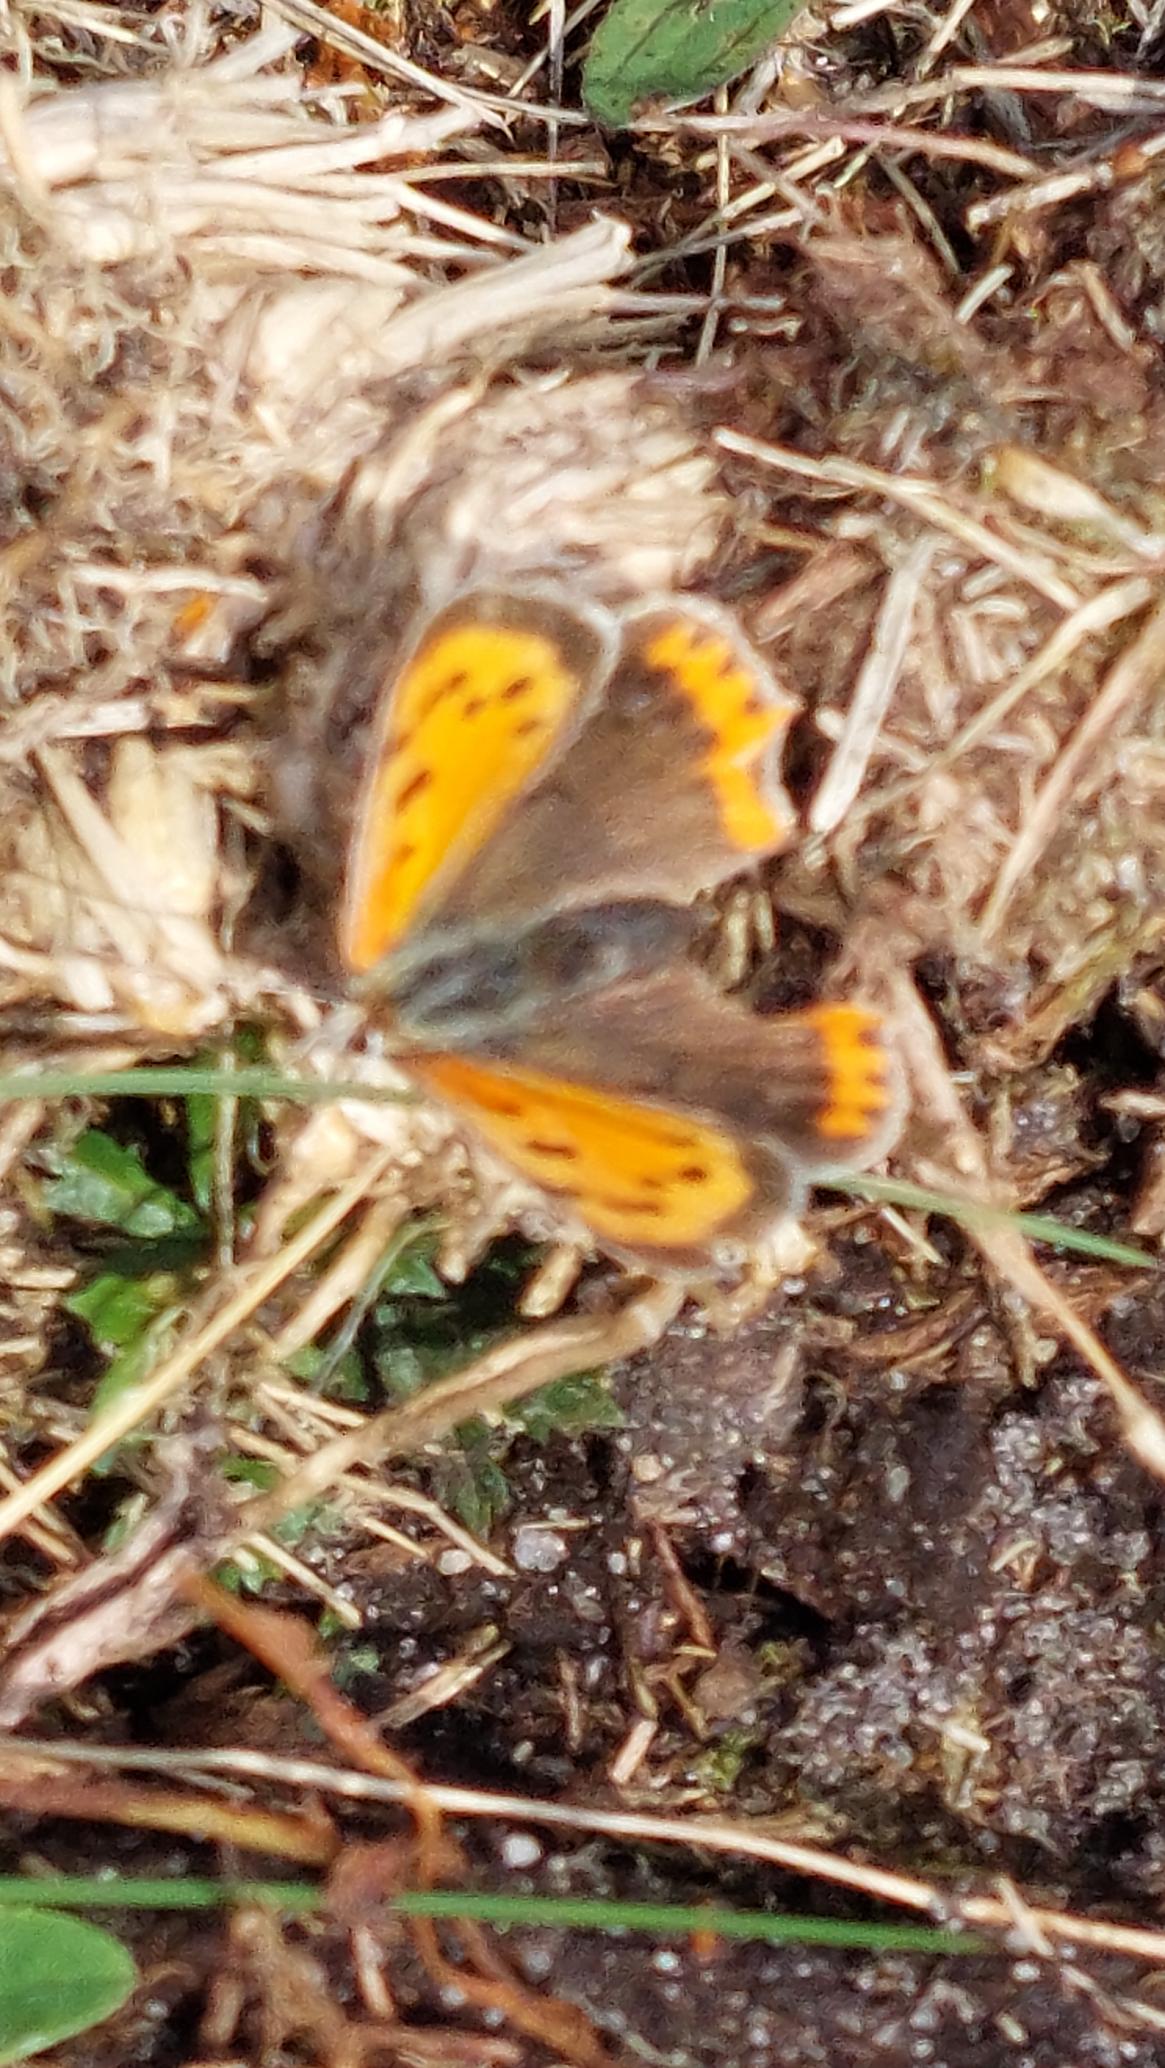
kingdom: Animalia
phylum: Arthropoda
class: Insecta
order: Lepidoptera
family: Lycaenidae
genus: Lycaena
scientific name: Lycaena phlaeas
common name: Lille ildfugl
